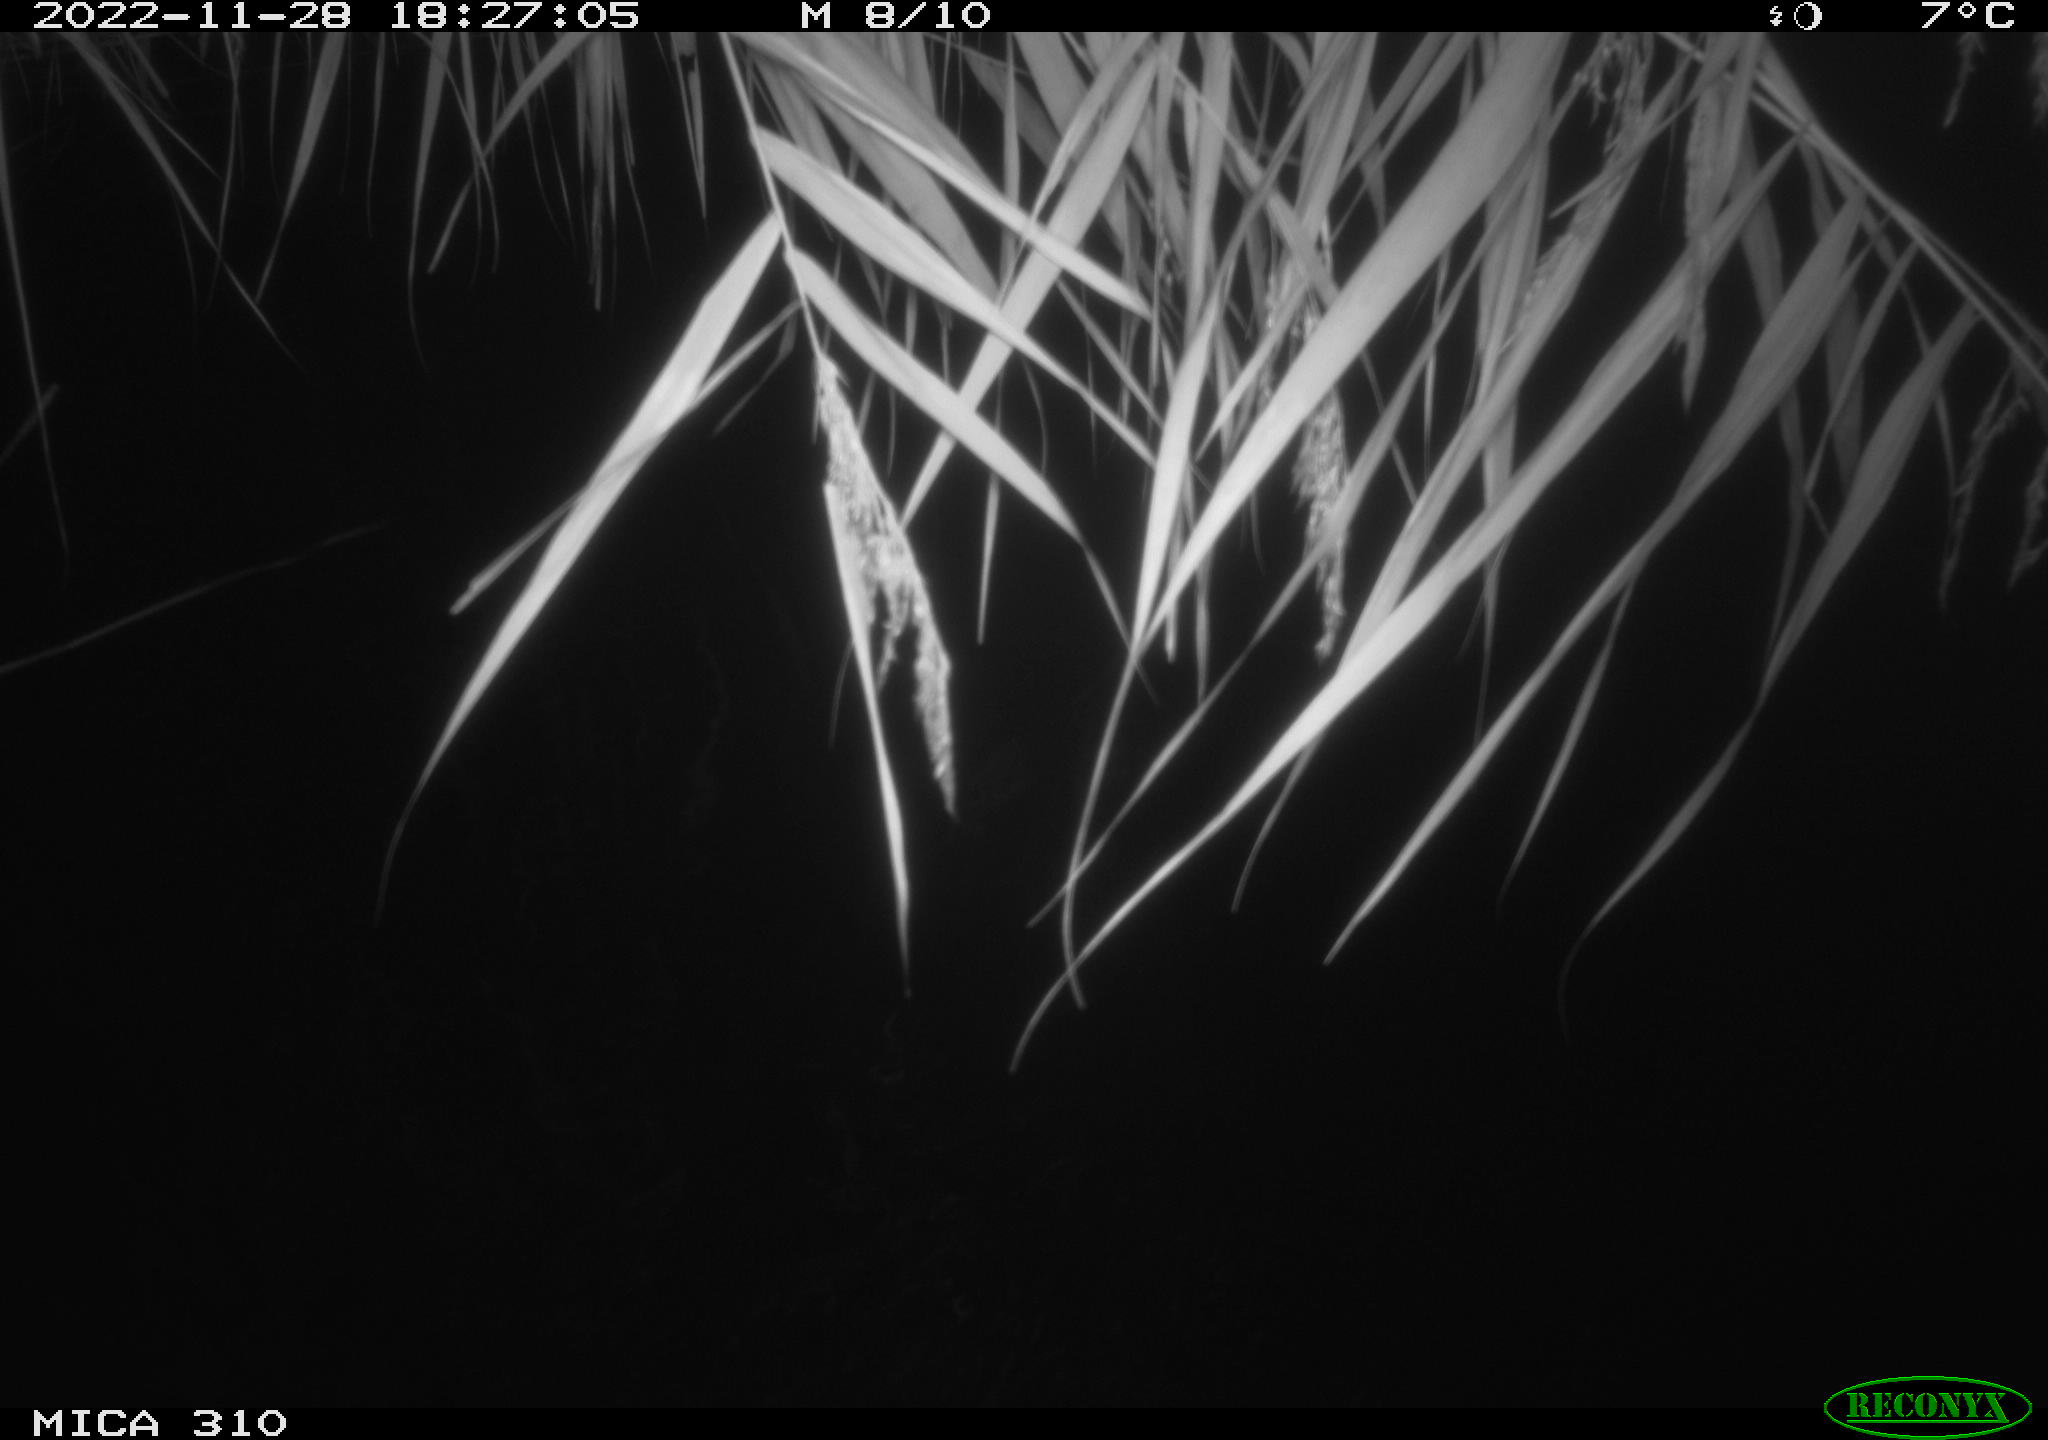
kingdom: Animalia
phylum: Chordata
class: Mammalia
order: Rodentia
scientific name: Rodentia
